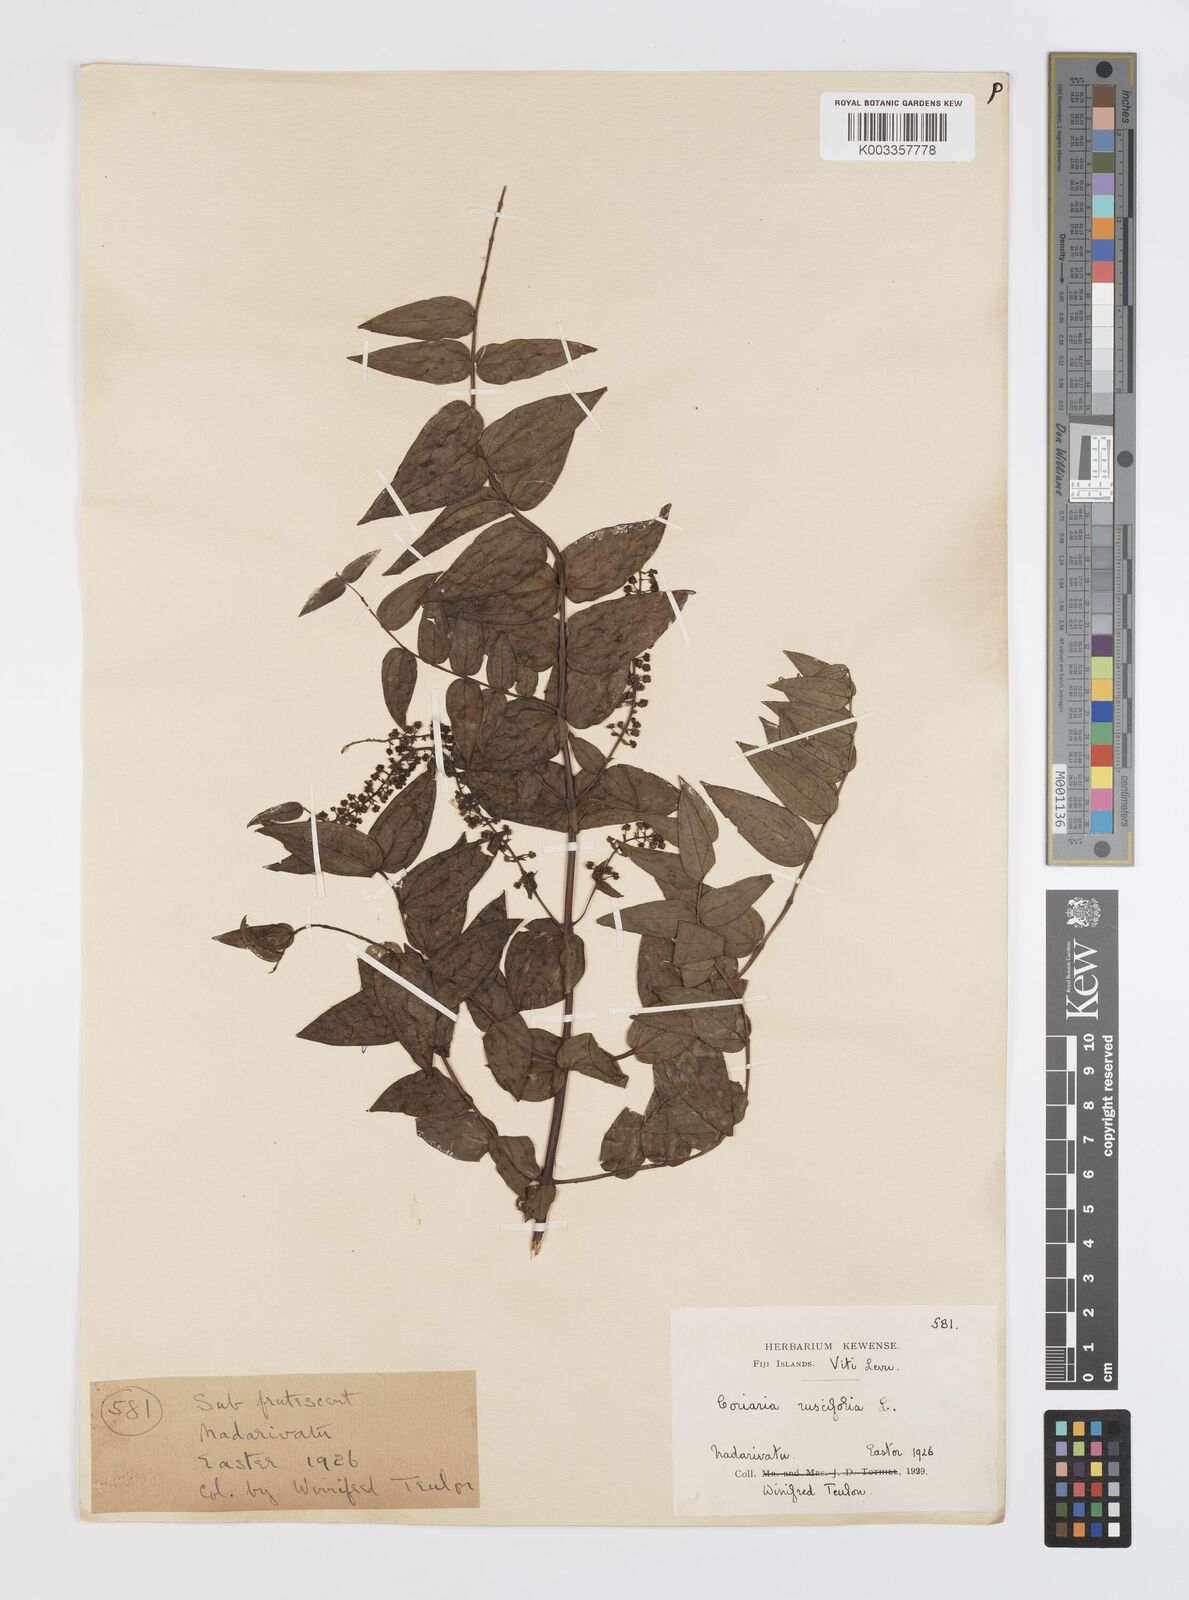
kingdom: Plantae
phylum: Tracheophyta
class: Magnoliopsida
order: Cucurbitales
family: Coriariaceae
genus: Coriaria
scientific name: Coriaria ruscifolia
